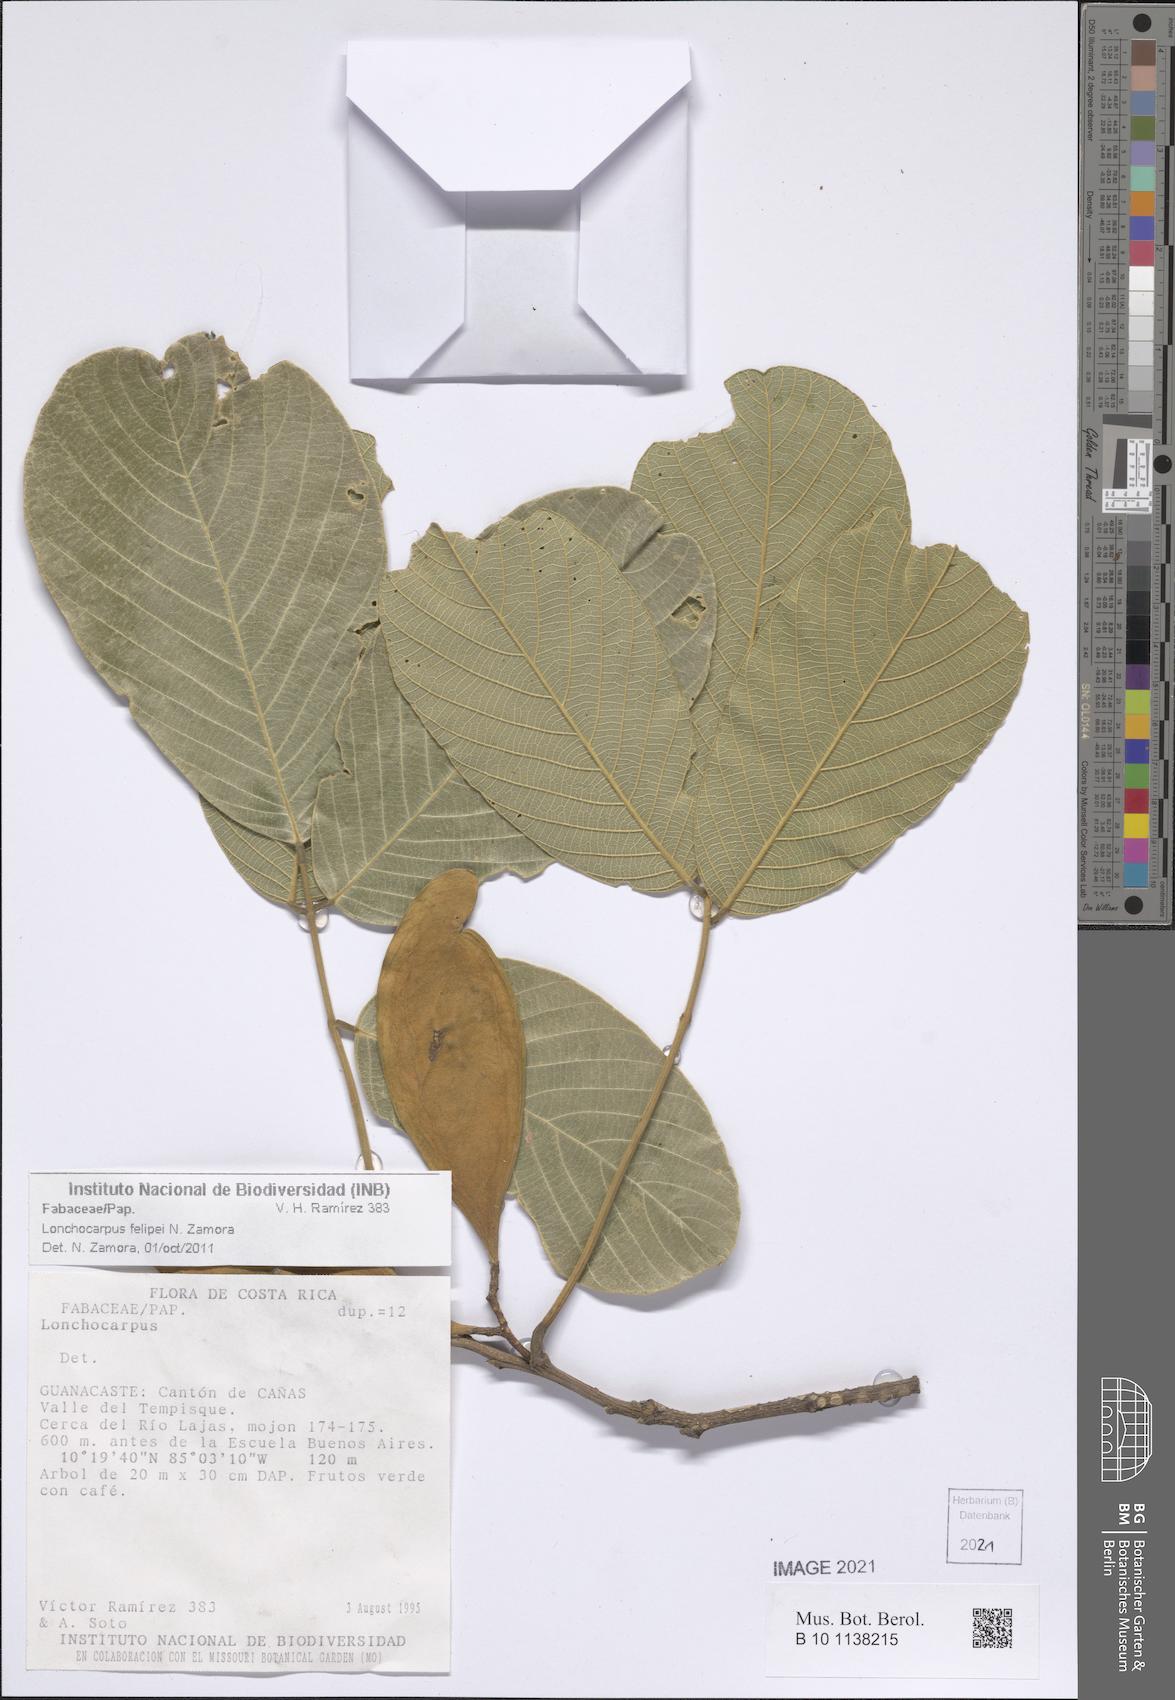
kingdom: Plantae
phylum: Tracheophyta
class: Magnoliopsida
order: Fabales
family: Fabaceae
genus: Lonchocarpus
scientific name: Lonchocarpus
